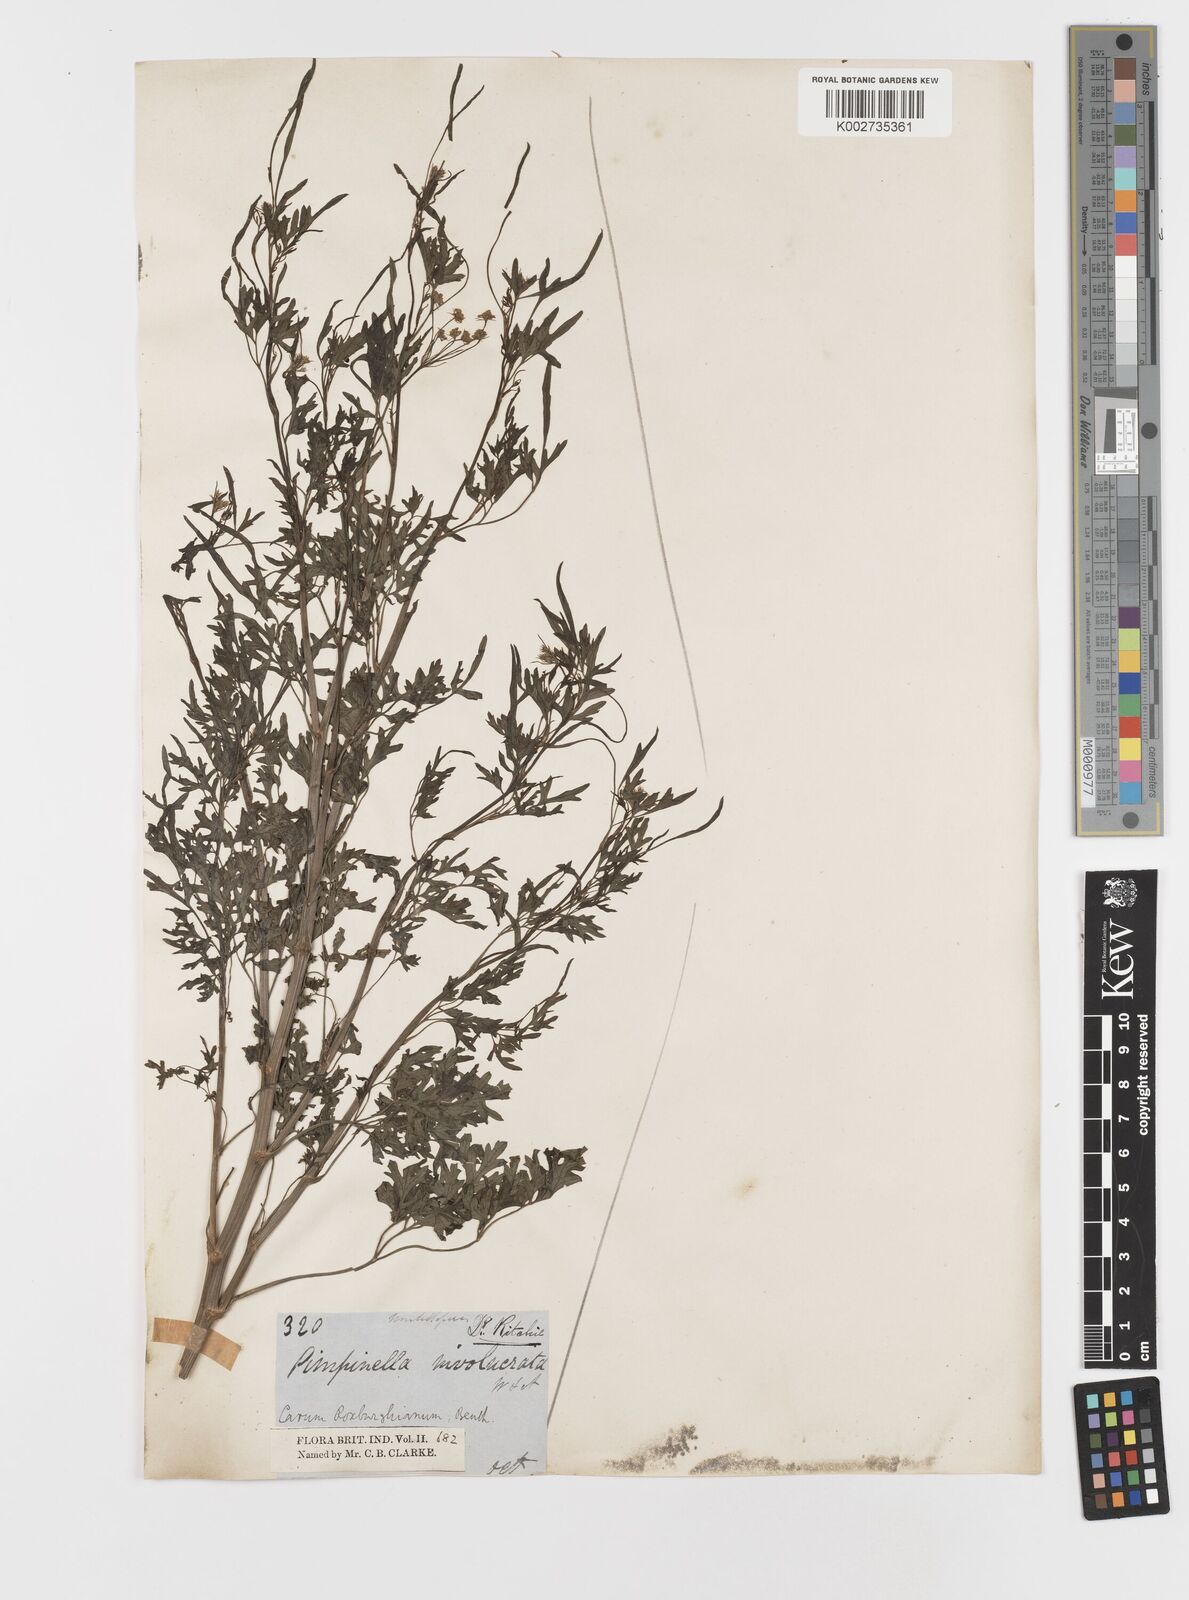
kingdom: Plantae
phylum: Tracheophyta
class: Magnoliopsida
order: Apiales
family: Apiaceae
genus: Psammogeton
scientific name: Psammogeton involucratum
